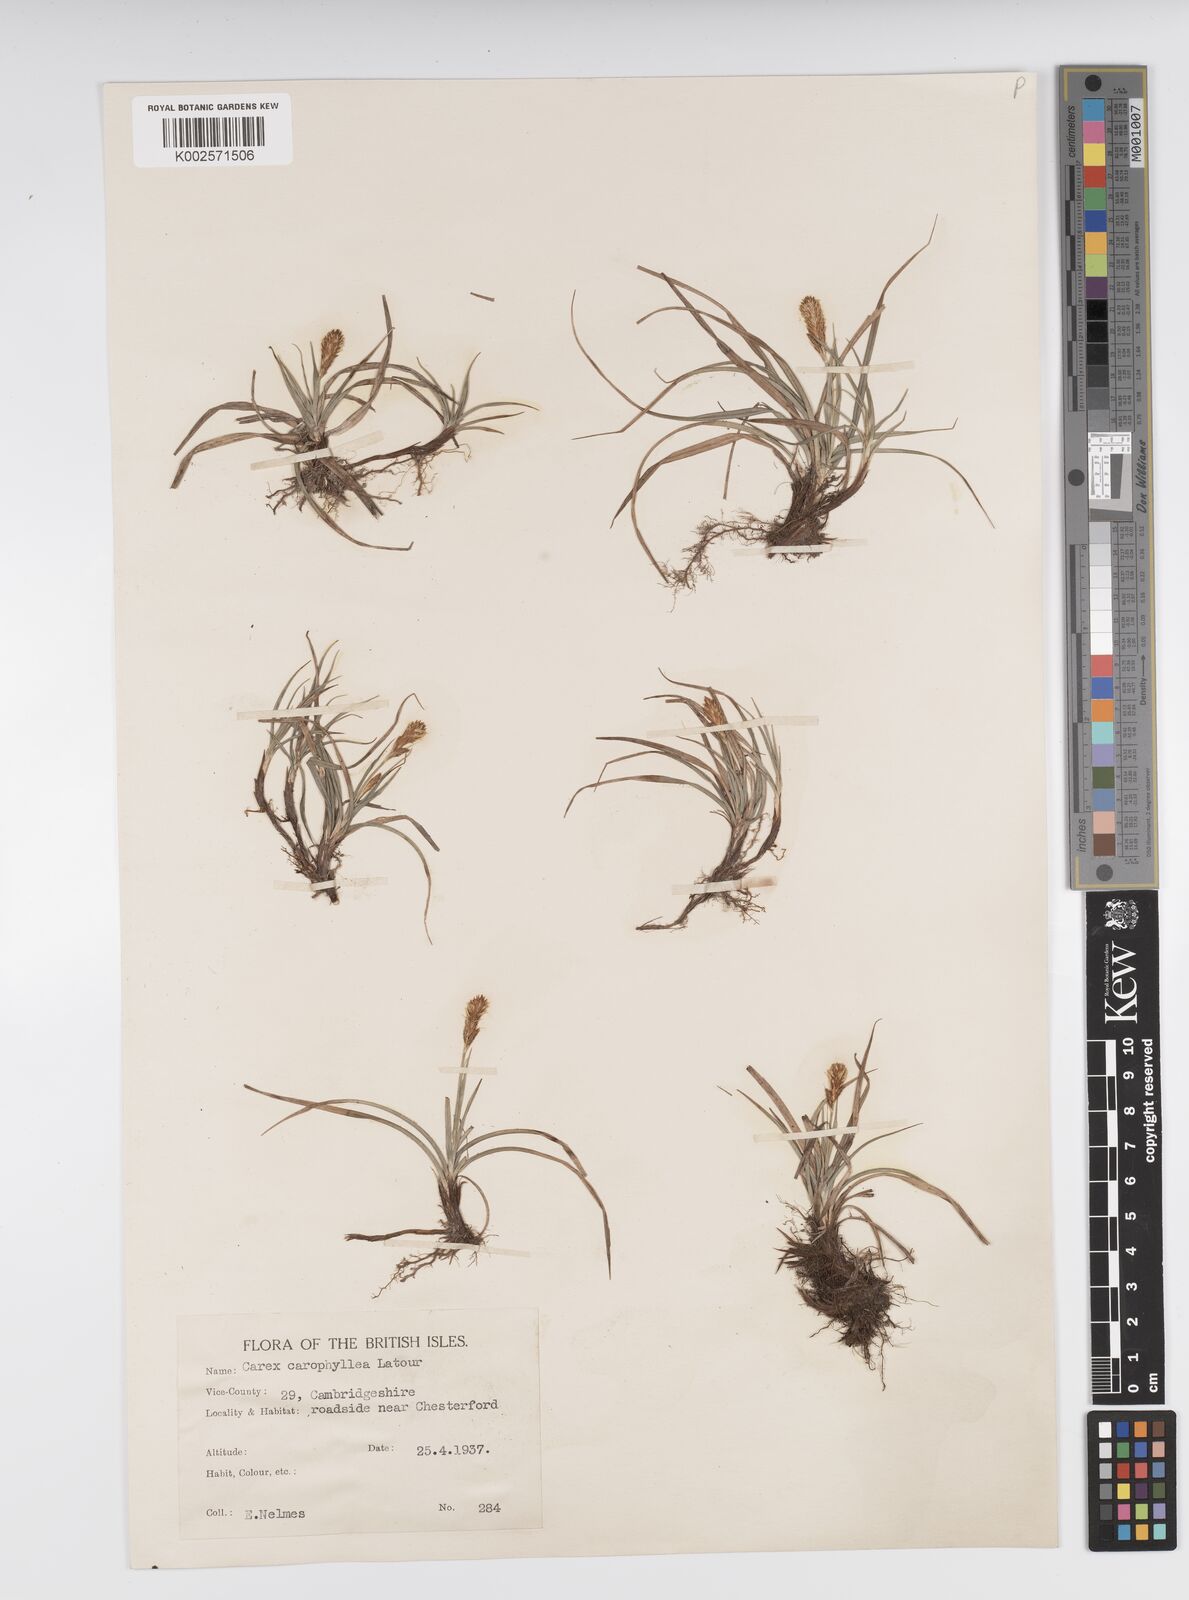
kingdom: Plantae
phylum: Tracheophyta
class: Liliopsida
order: Poales
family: Cyperaceae
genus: Carex
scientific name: Carex caryophyllea
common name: Spring sedge
